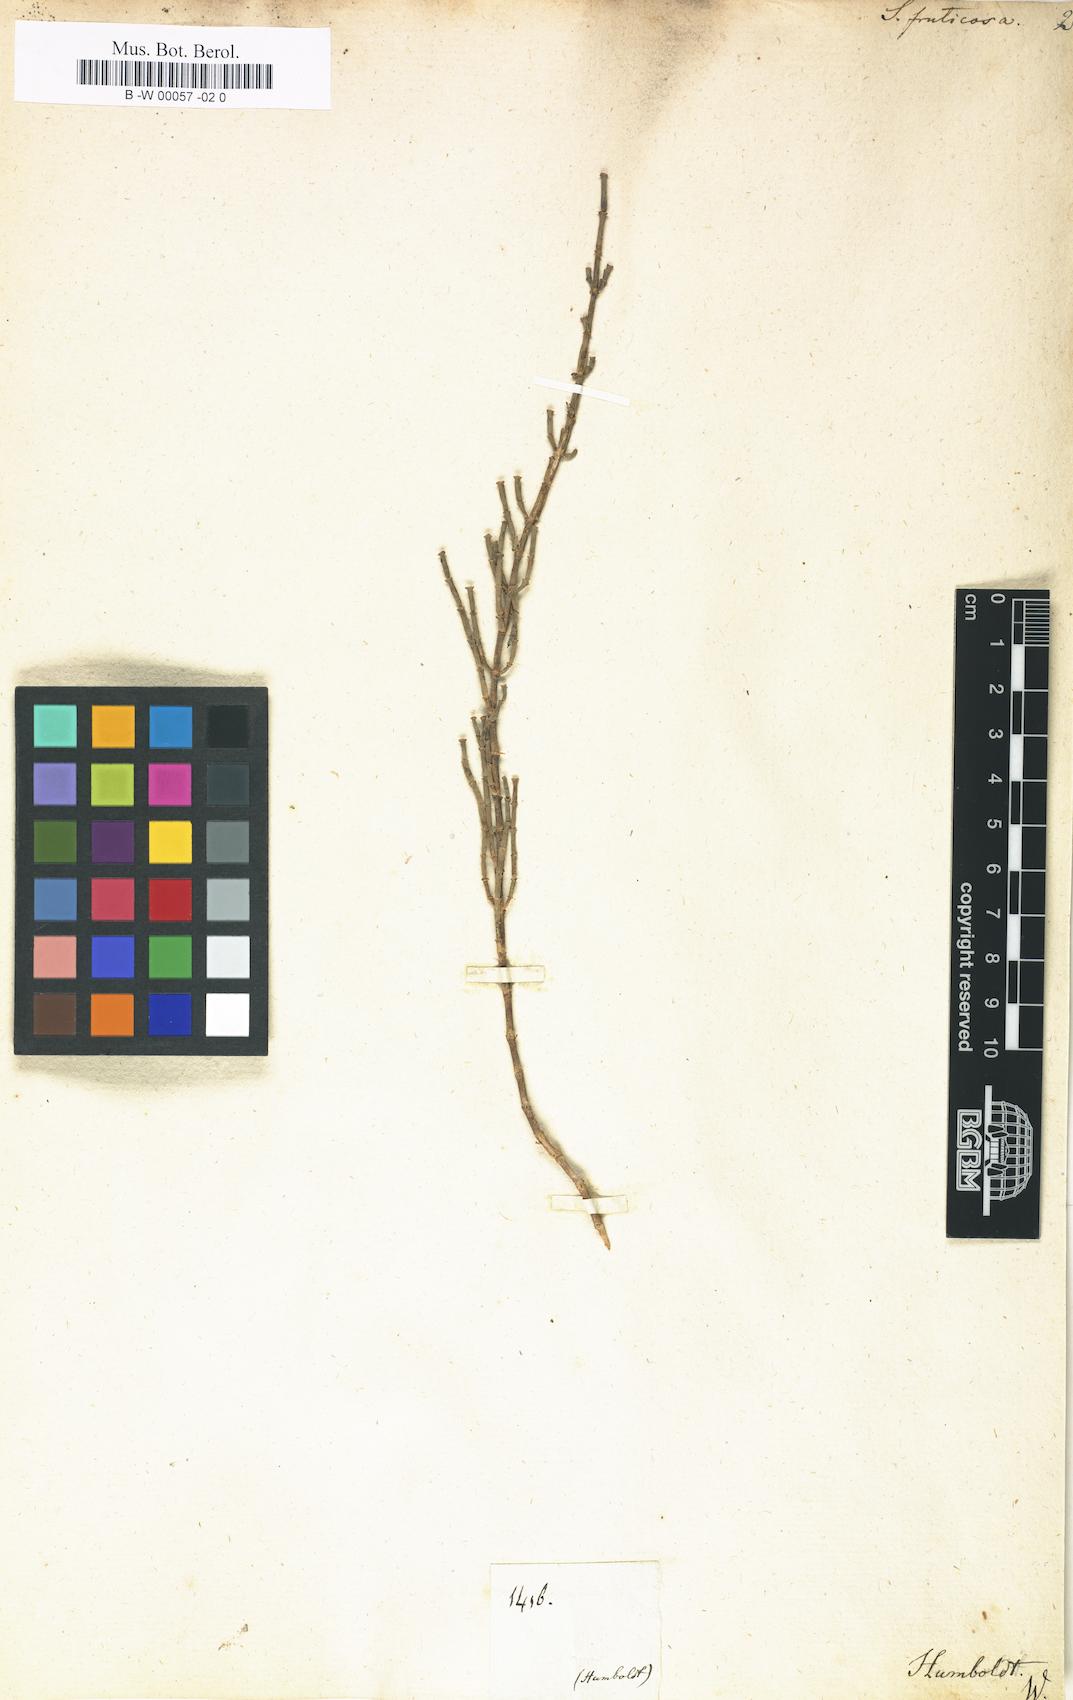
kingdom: Plantae
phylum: Tracheophyta
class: Magnoliopsida
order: Caryophyllales
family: Amaranthaceae
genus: Salicornia
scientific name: Salicornia fruticosa
